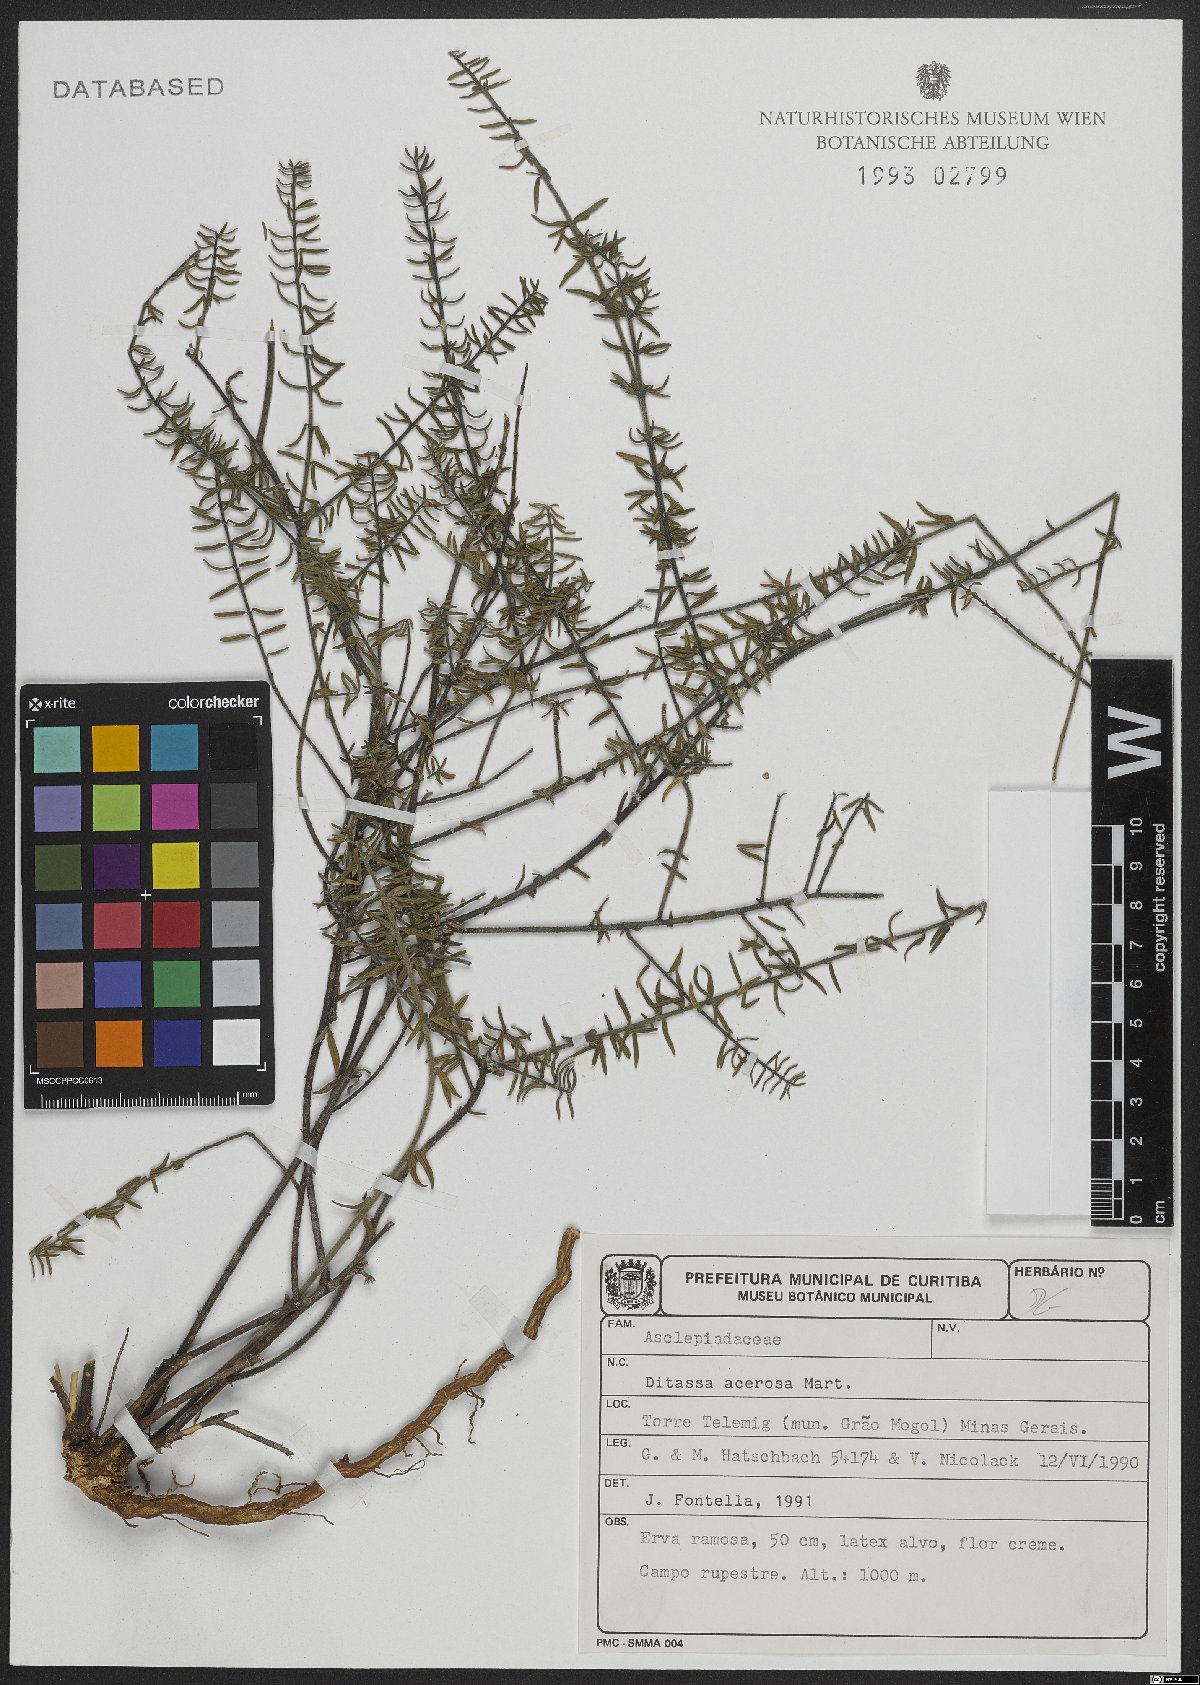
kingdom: Plantae
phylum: Tracheophyta
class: Magnoliopsida
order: Gentianales
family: Apocynaceae
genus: Minaria
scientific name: Minaria acerosa
